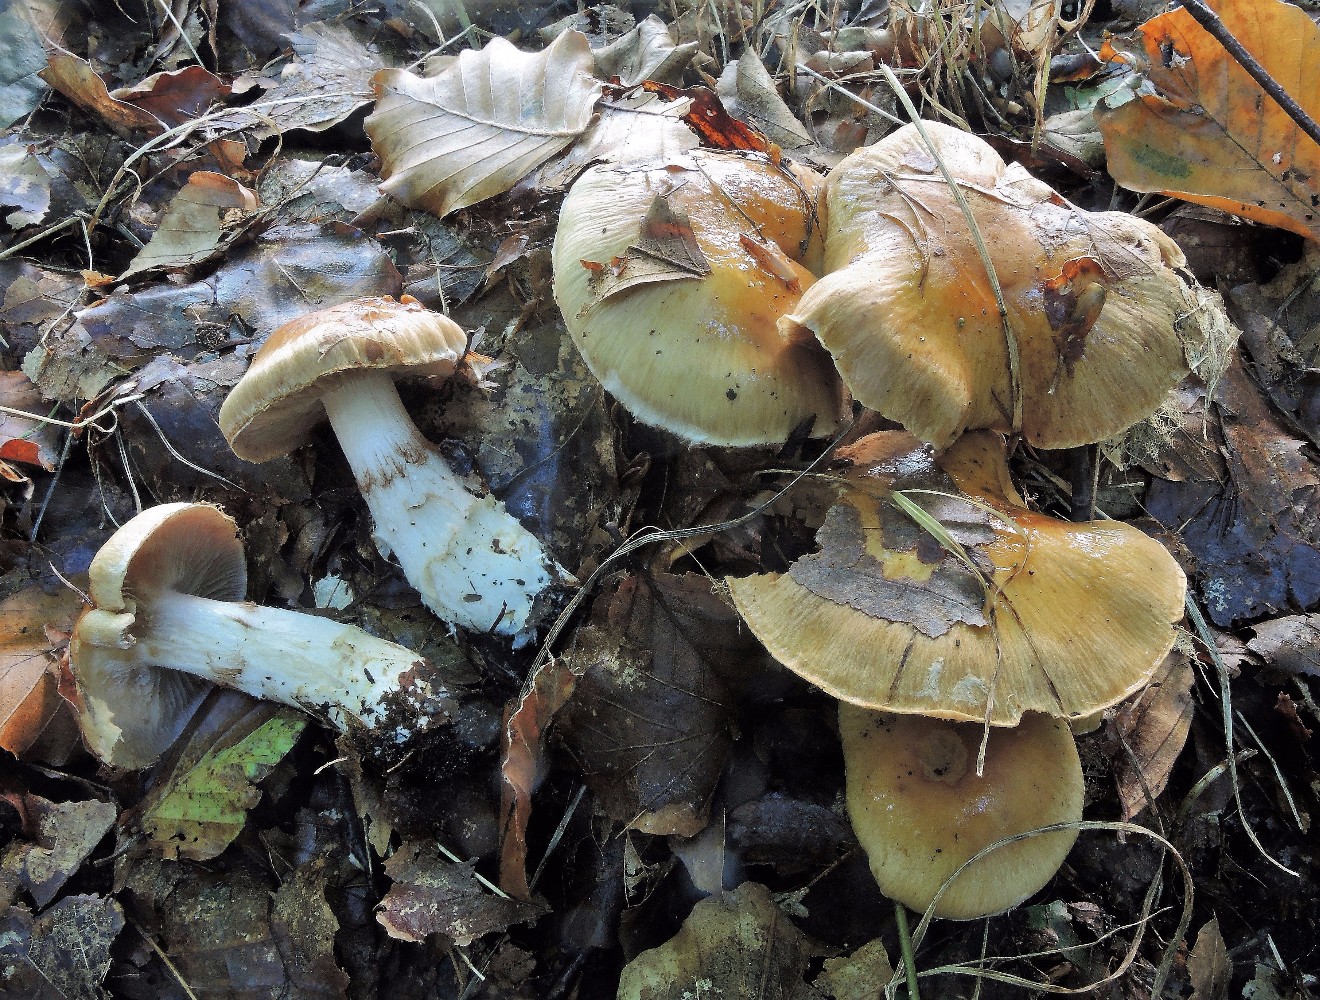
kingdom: Fungi
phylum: Basidiomycota
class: Agaricomycetes
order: Agaricales
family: Cortinariaceae
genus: Phlegmacium
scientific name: Phlegmacium obsoletum
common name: ulve-slørhat
